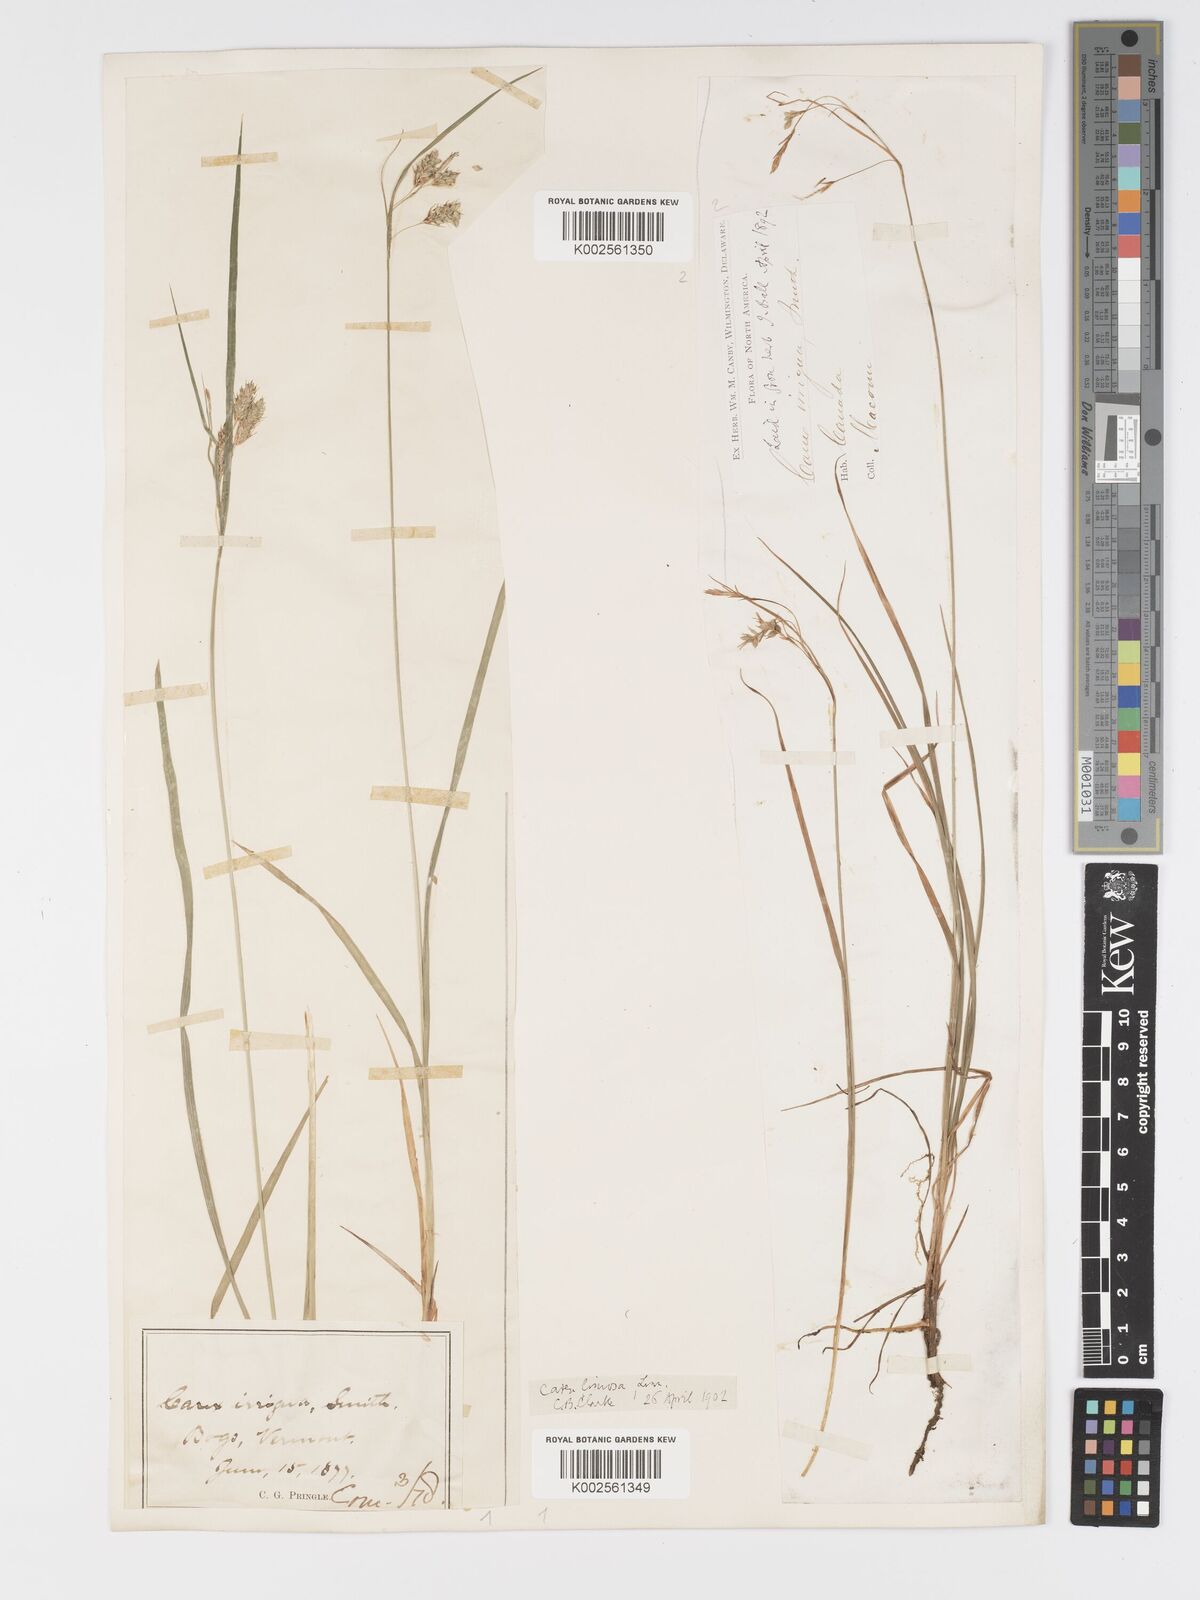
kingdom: Plantae
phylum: Tracheophyta
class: Liliopsida
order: Poales
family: Cyperaceae
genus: Carex
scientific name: Carex magellanica
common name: Bog sedge
